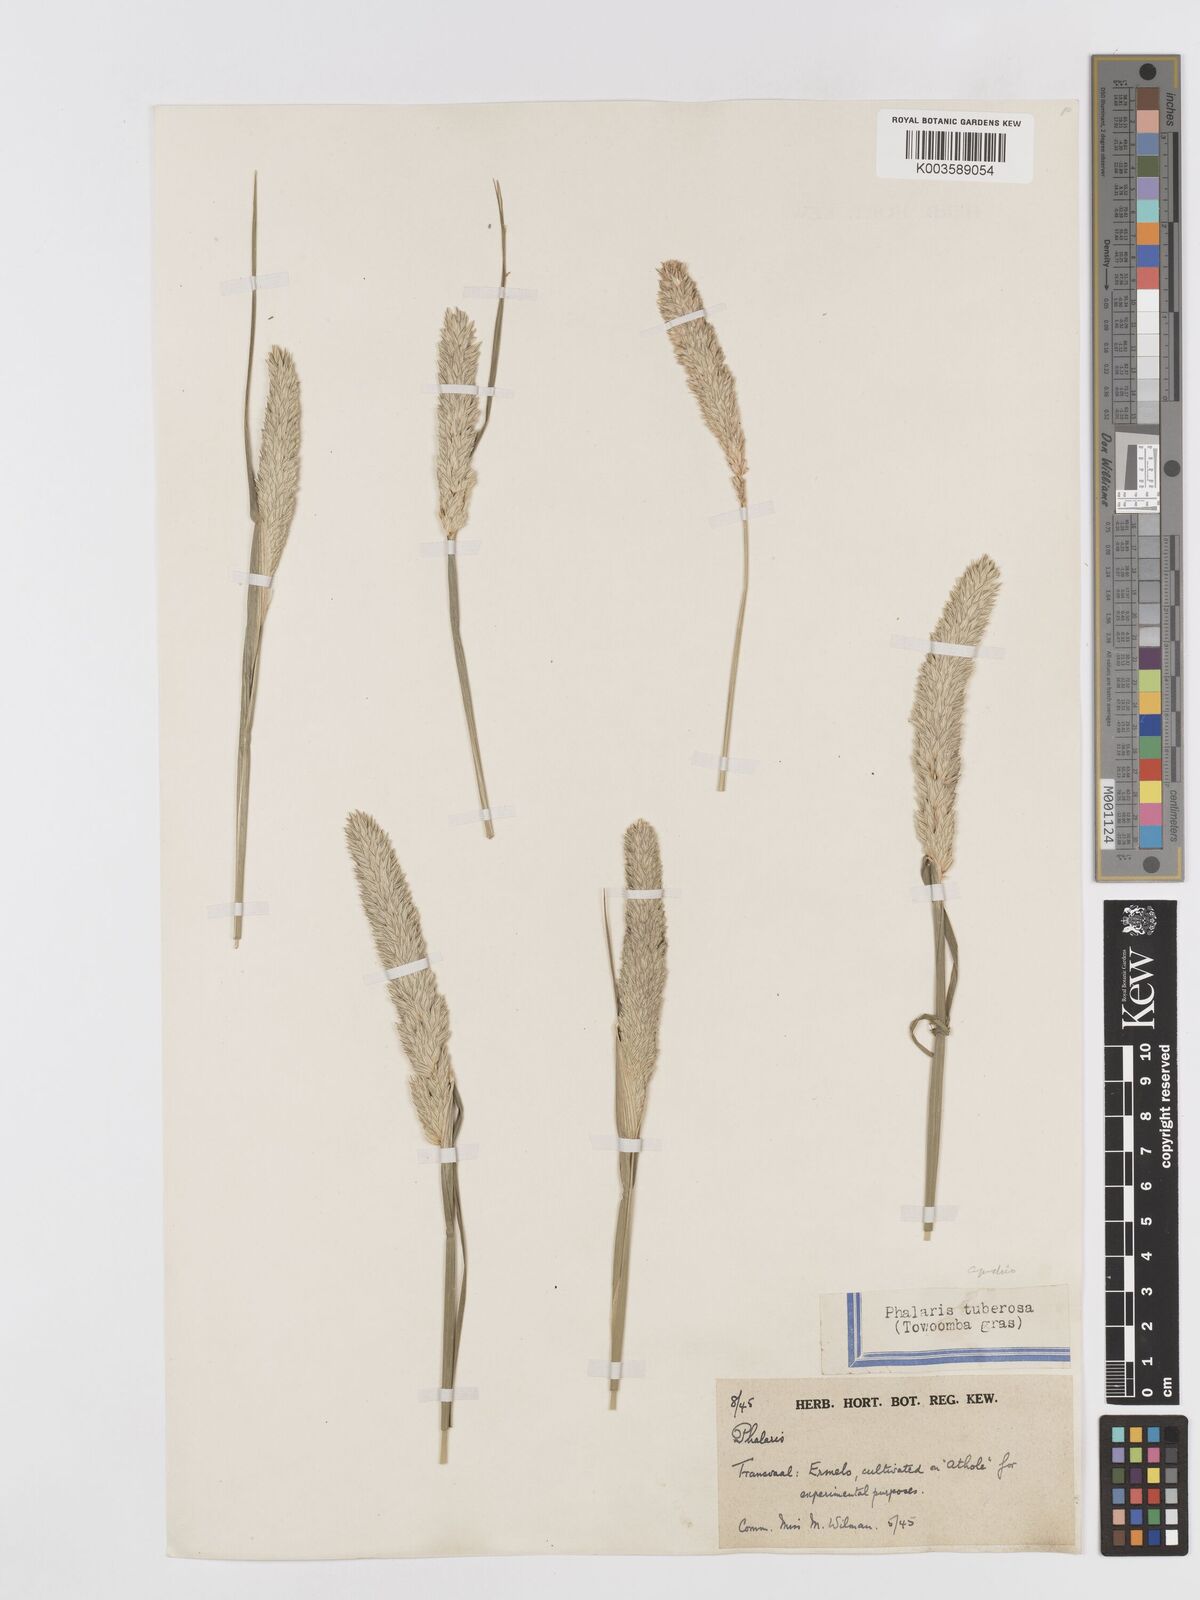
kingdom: Plantae
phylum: Tracheophyta
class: Liliopsida
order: Poales
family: Poaceae
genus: Phalaris
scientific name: Phalaris aquatica
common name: Bulbous canary-grass
